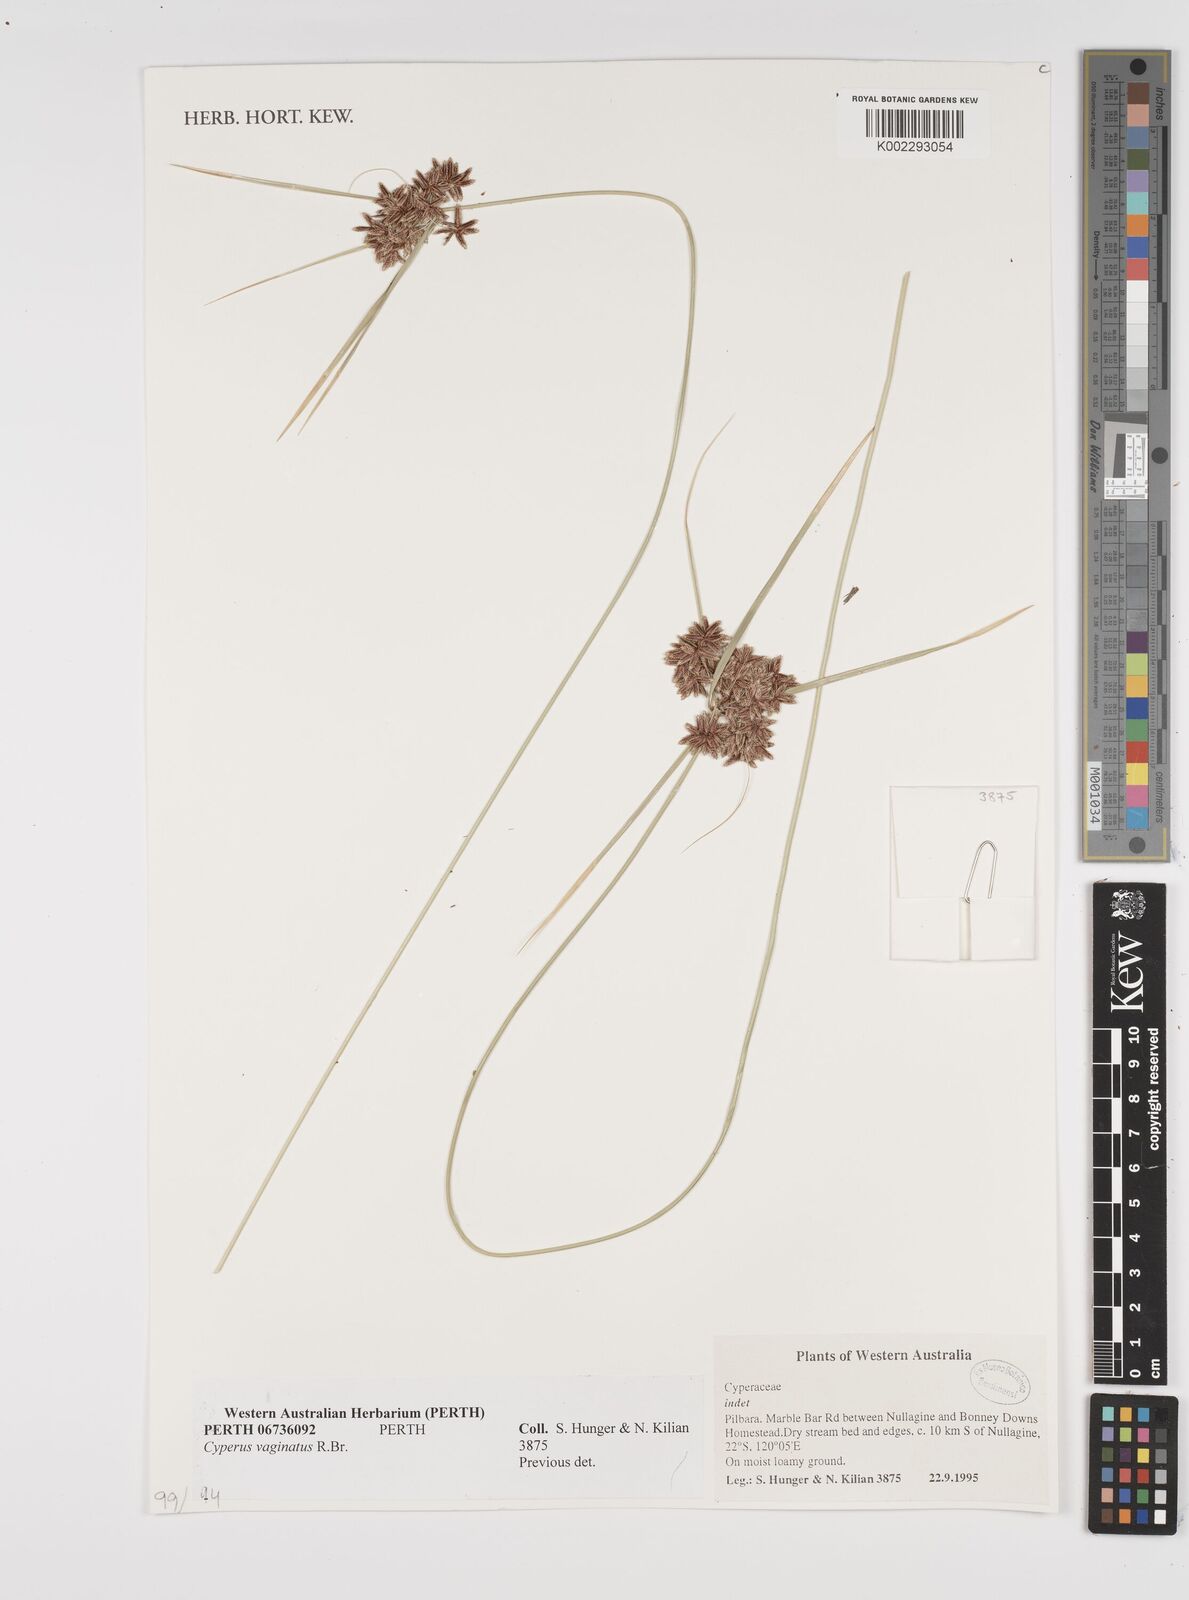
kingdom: Plantae
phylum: Tracheophyta
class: Liliopsida
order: Poales
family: Cyperaceae
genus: Cyperus
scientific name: Cyperus vaginatus
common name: Stiff-leaved flat-sedge
